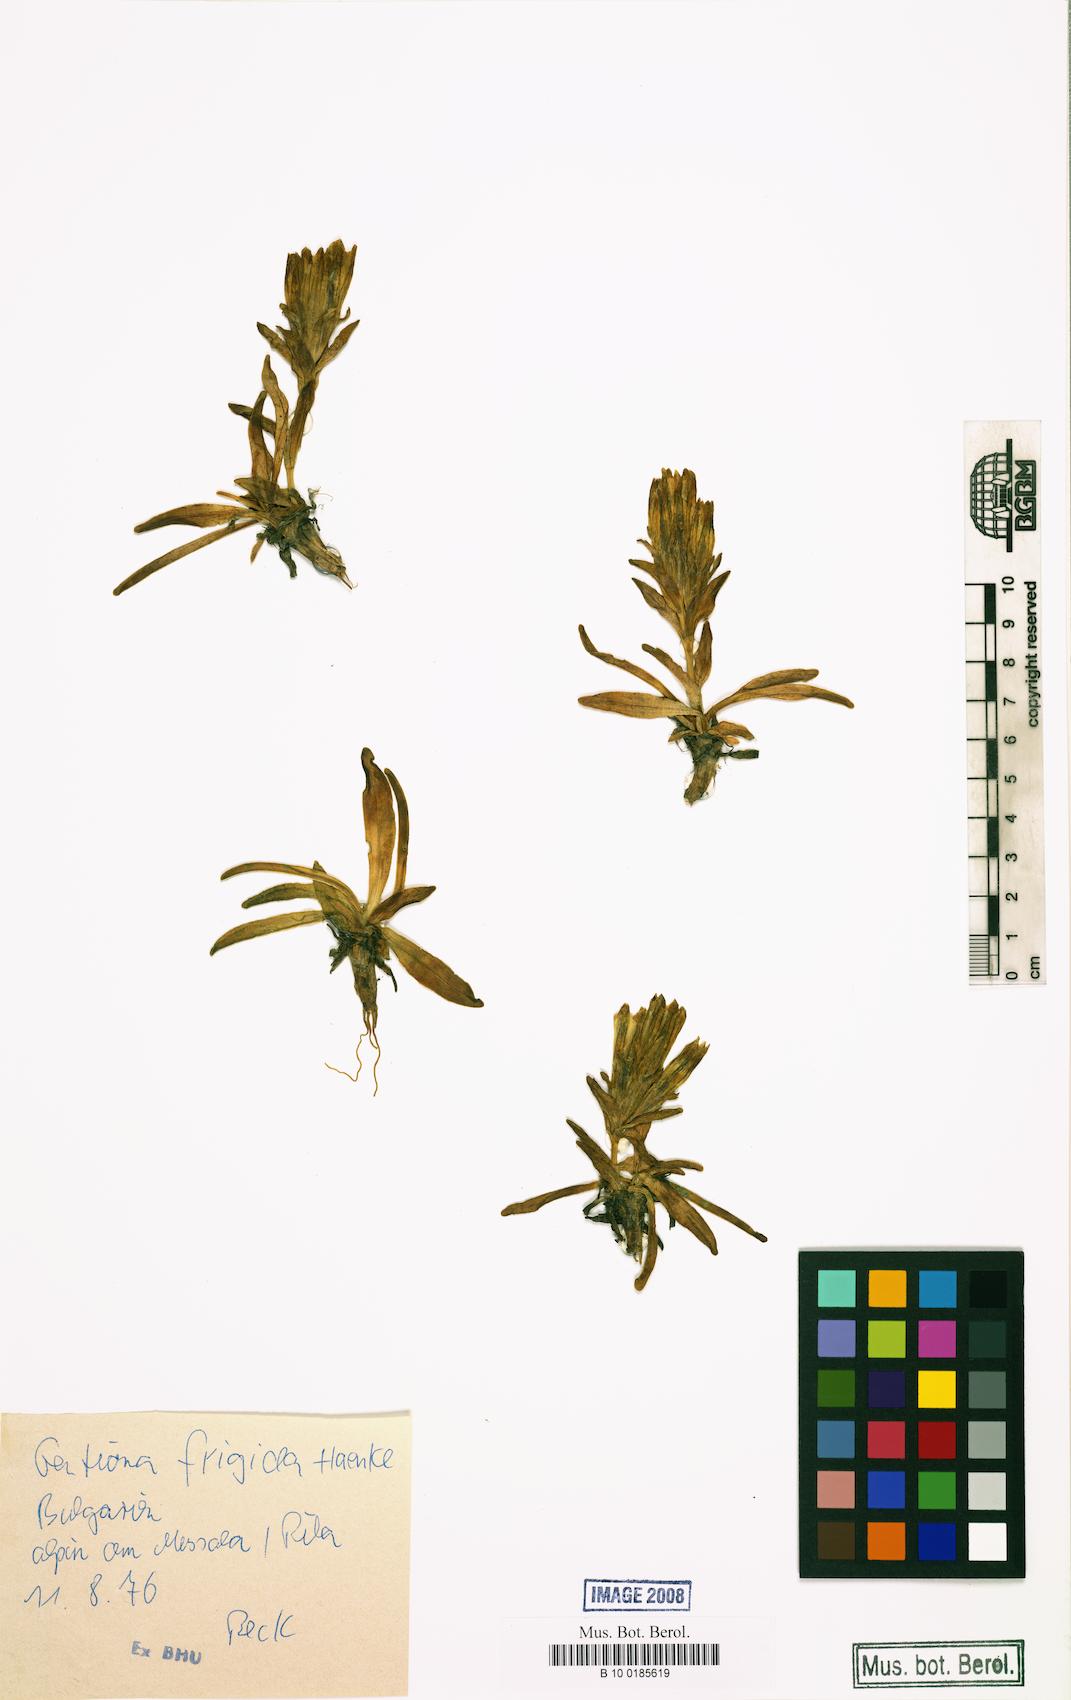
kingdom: Plantae
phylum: Tracheophyta
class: Magnoliopsida
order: Gentianales
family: Gentianaceae
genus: Gentiana
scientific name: Gentiana frigida
